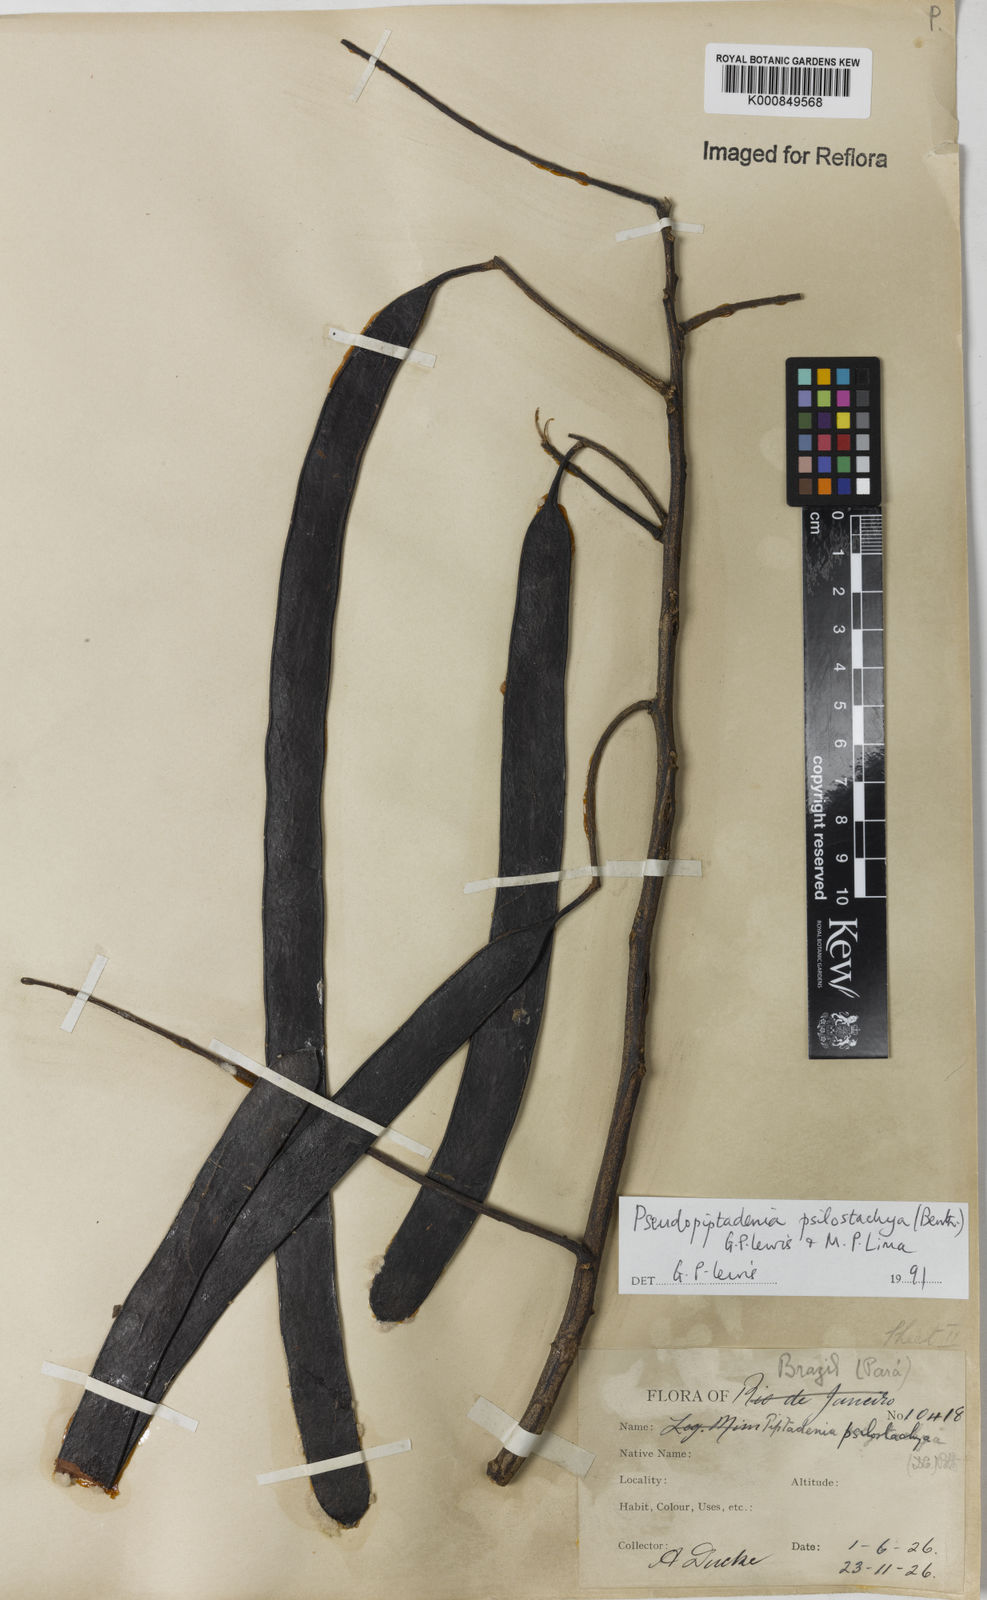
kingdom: Plantae
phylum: Tracheophyta
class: Magnoliopsida
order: Fabales
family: Fabaceae
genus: Pseudopiptadenia
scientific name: Pseudopiptadenia psilostachya
